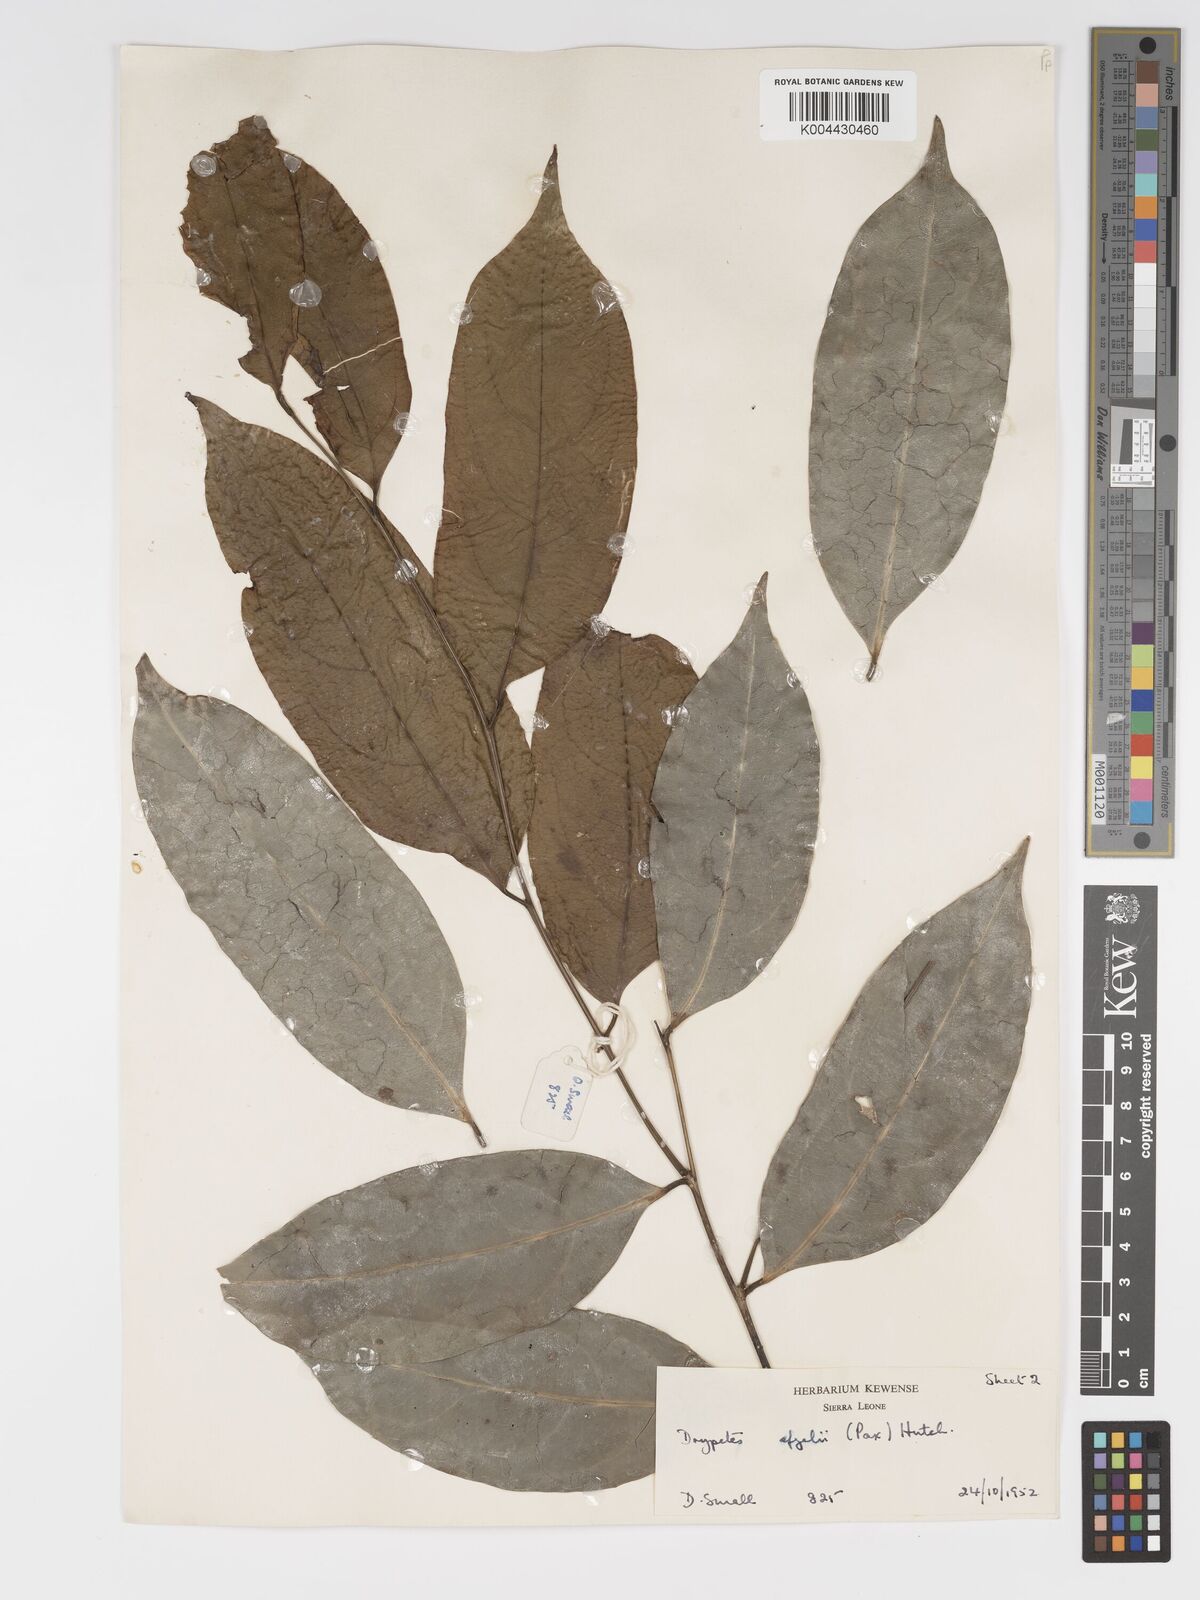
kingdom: Plantae
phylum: Tracheophyta
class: Magnoliopsida
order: Malpighiales
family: Putranjivaceae
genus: Drypetes
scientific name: Drypetes afzelii
